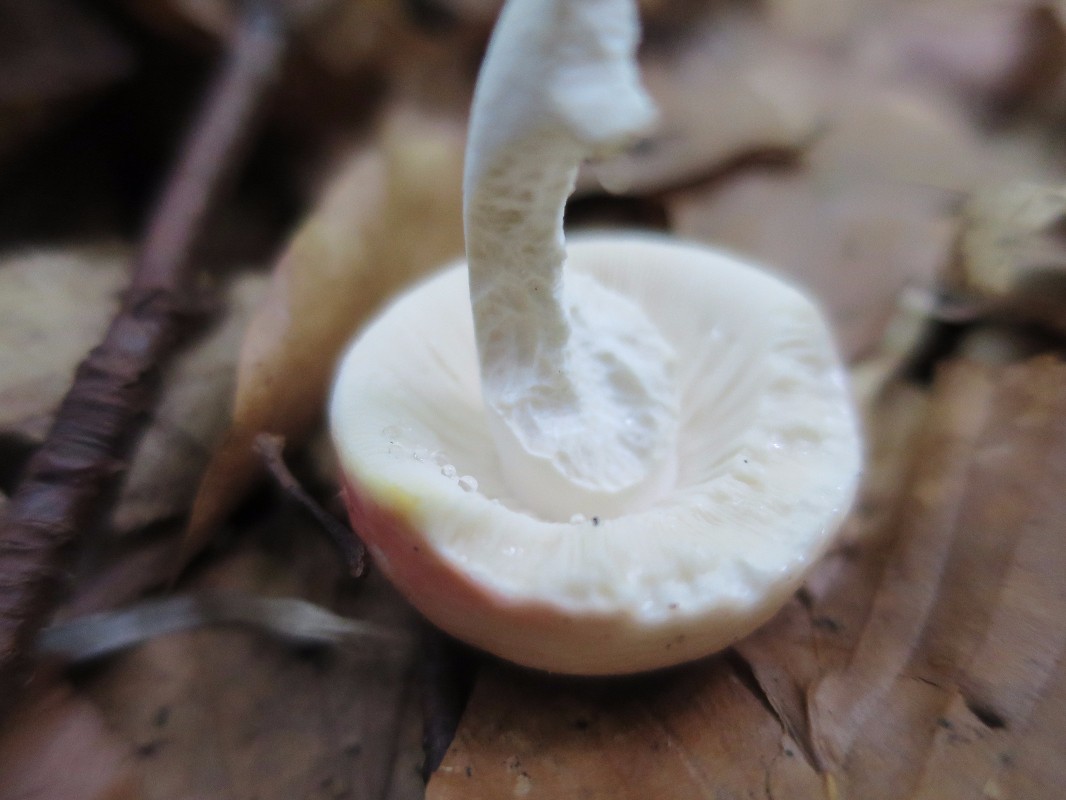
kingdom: Fungi
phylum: Basidiomycota
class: Agaricomycetes
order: Russulales
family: Russulaceae
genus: Russula
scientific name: Russula nobilis
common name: lille gift-skørhat
